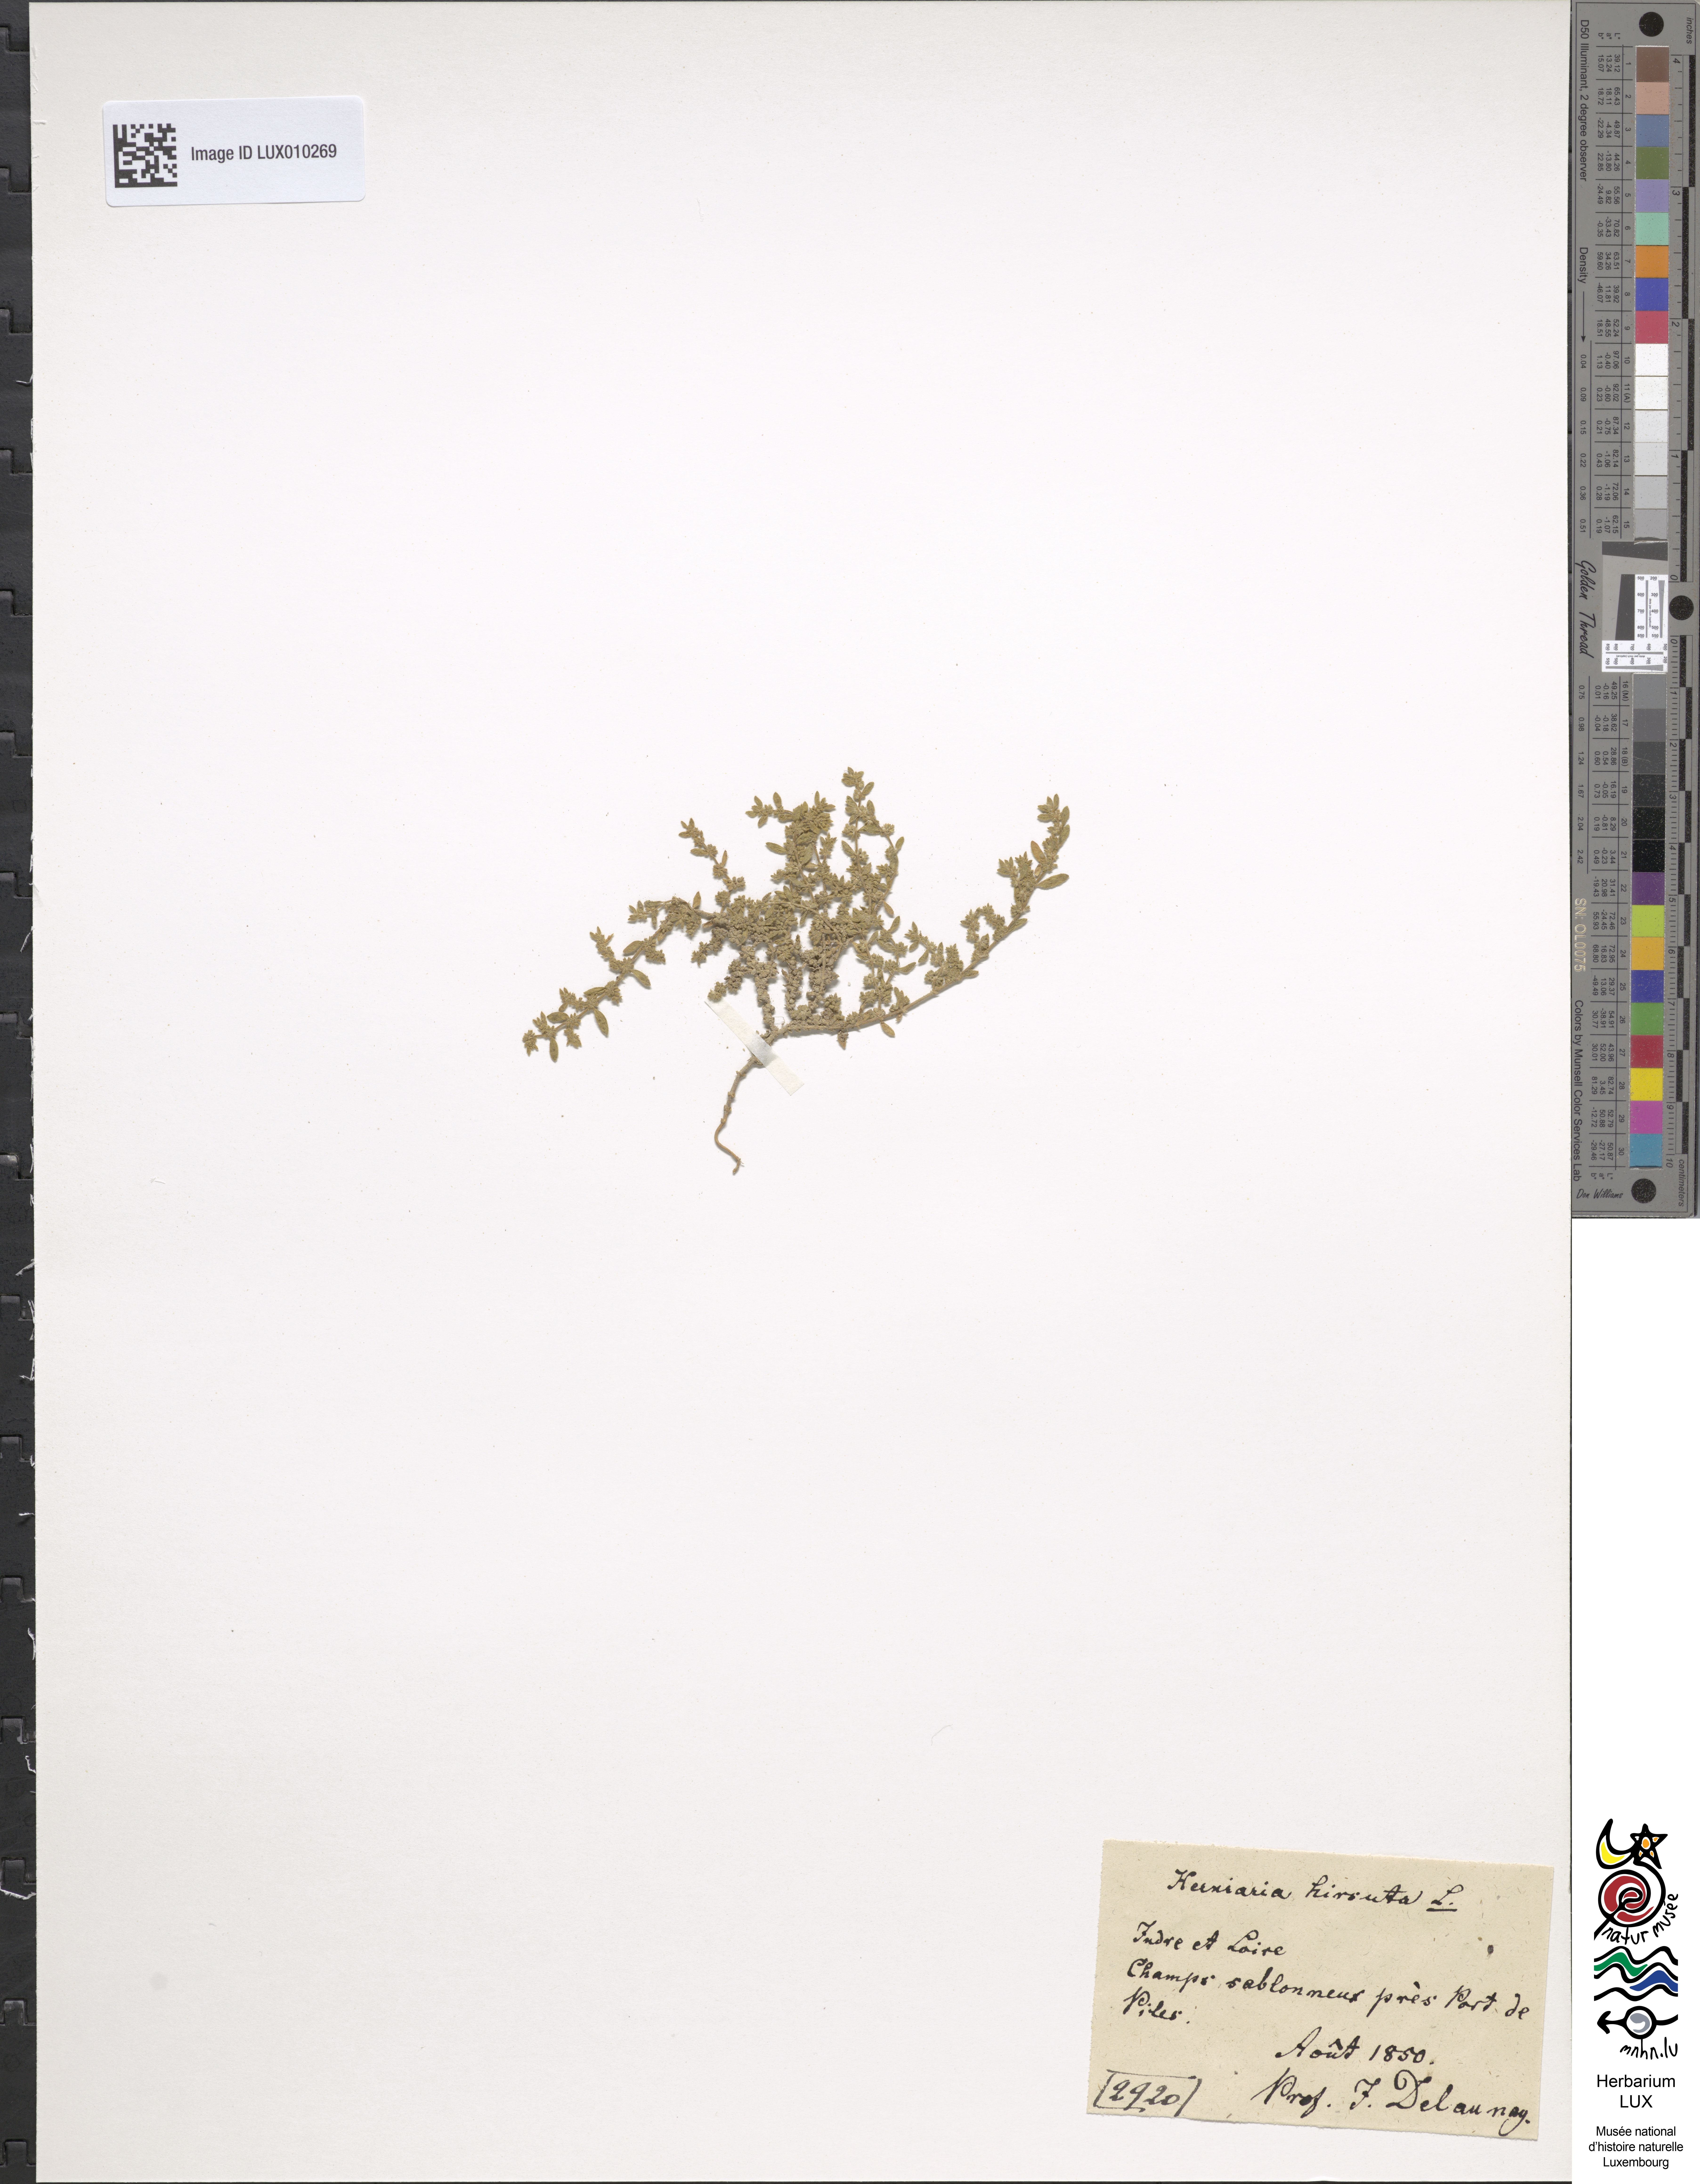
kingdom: Plantae
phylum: Tracheophyta
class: Magnoliopsida
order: Caryophyllales
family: Polygonaceae
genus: Fagopyrum
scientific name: Fagopyrum tataricum
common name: Green buckwheat
